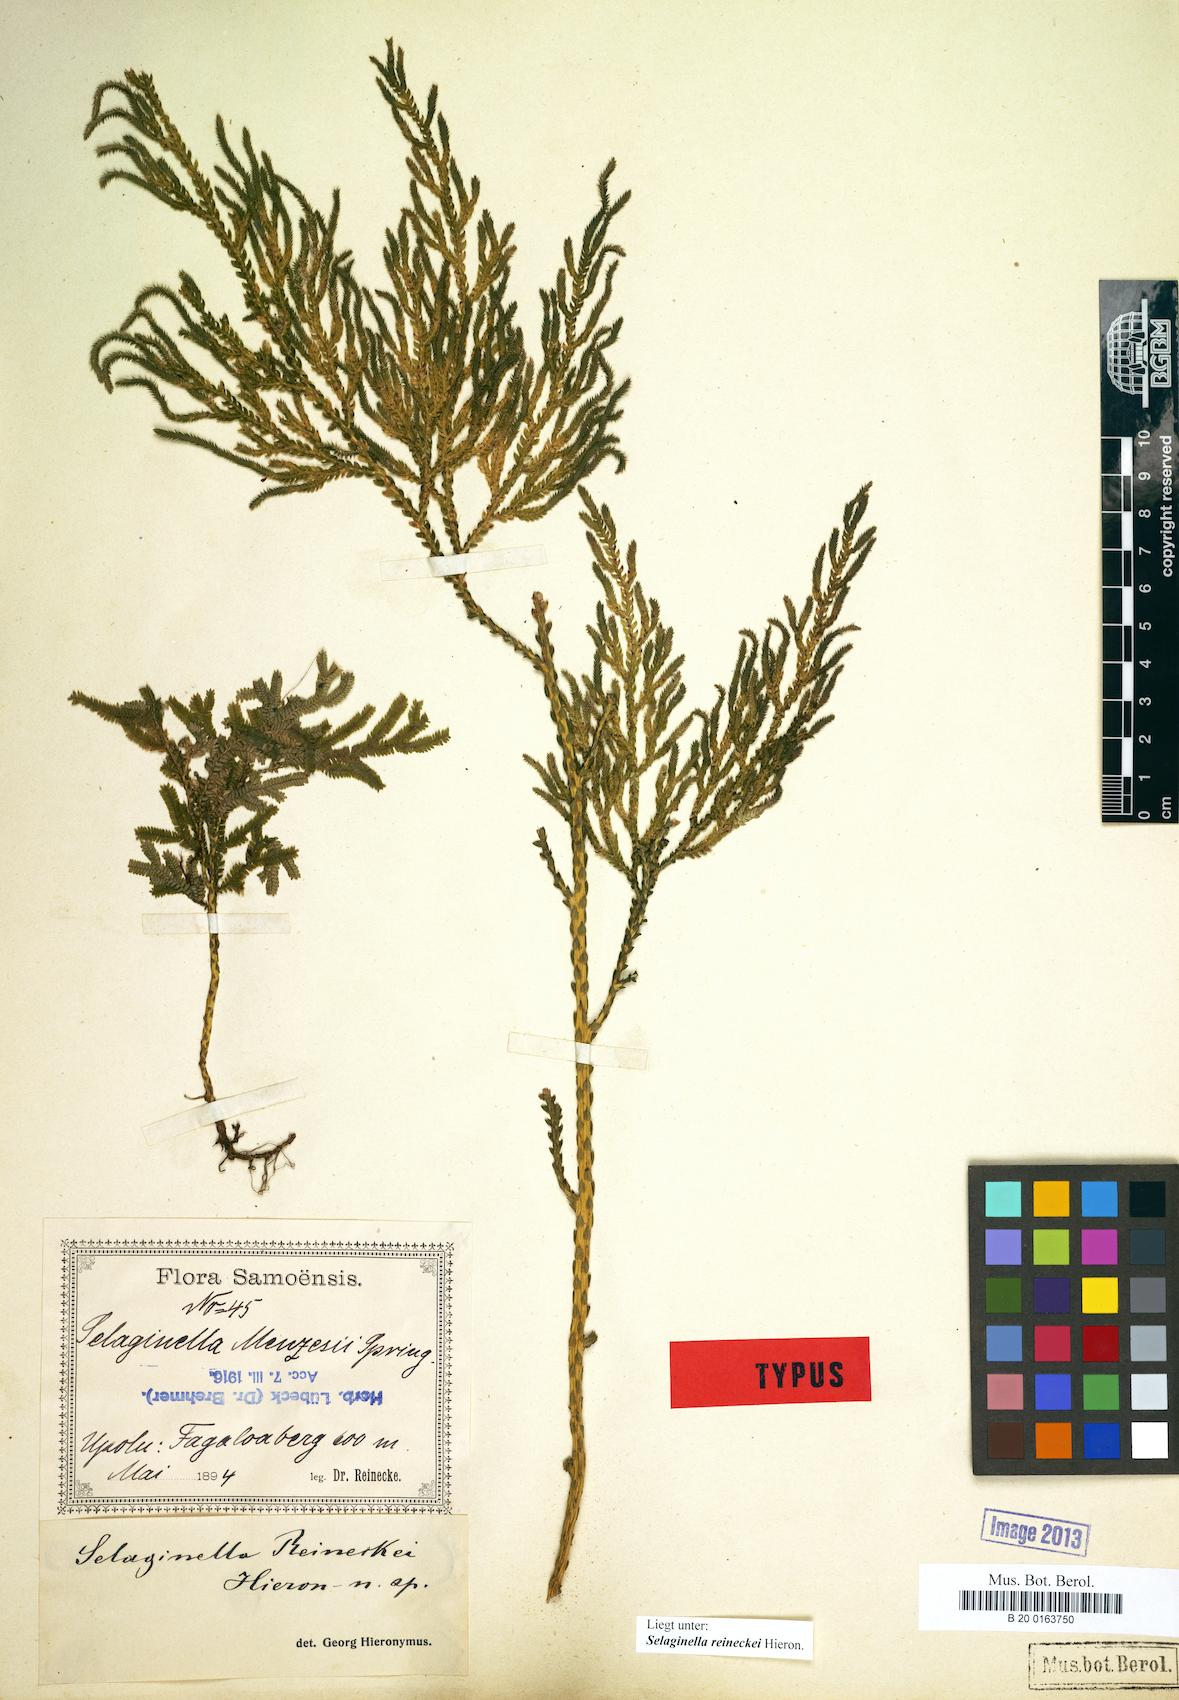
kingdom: Plantae
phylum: Tracheophyta
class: Lycopodiopsida
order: Selaginellales
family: Selaginellaceae
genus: Selaginella
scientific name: Selaginella reineckei
